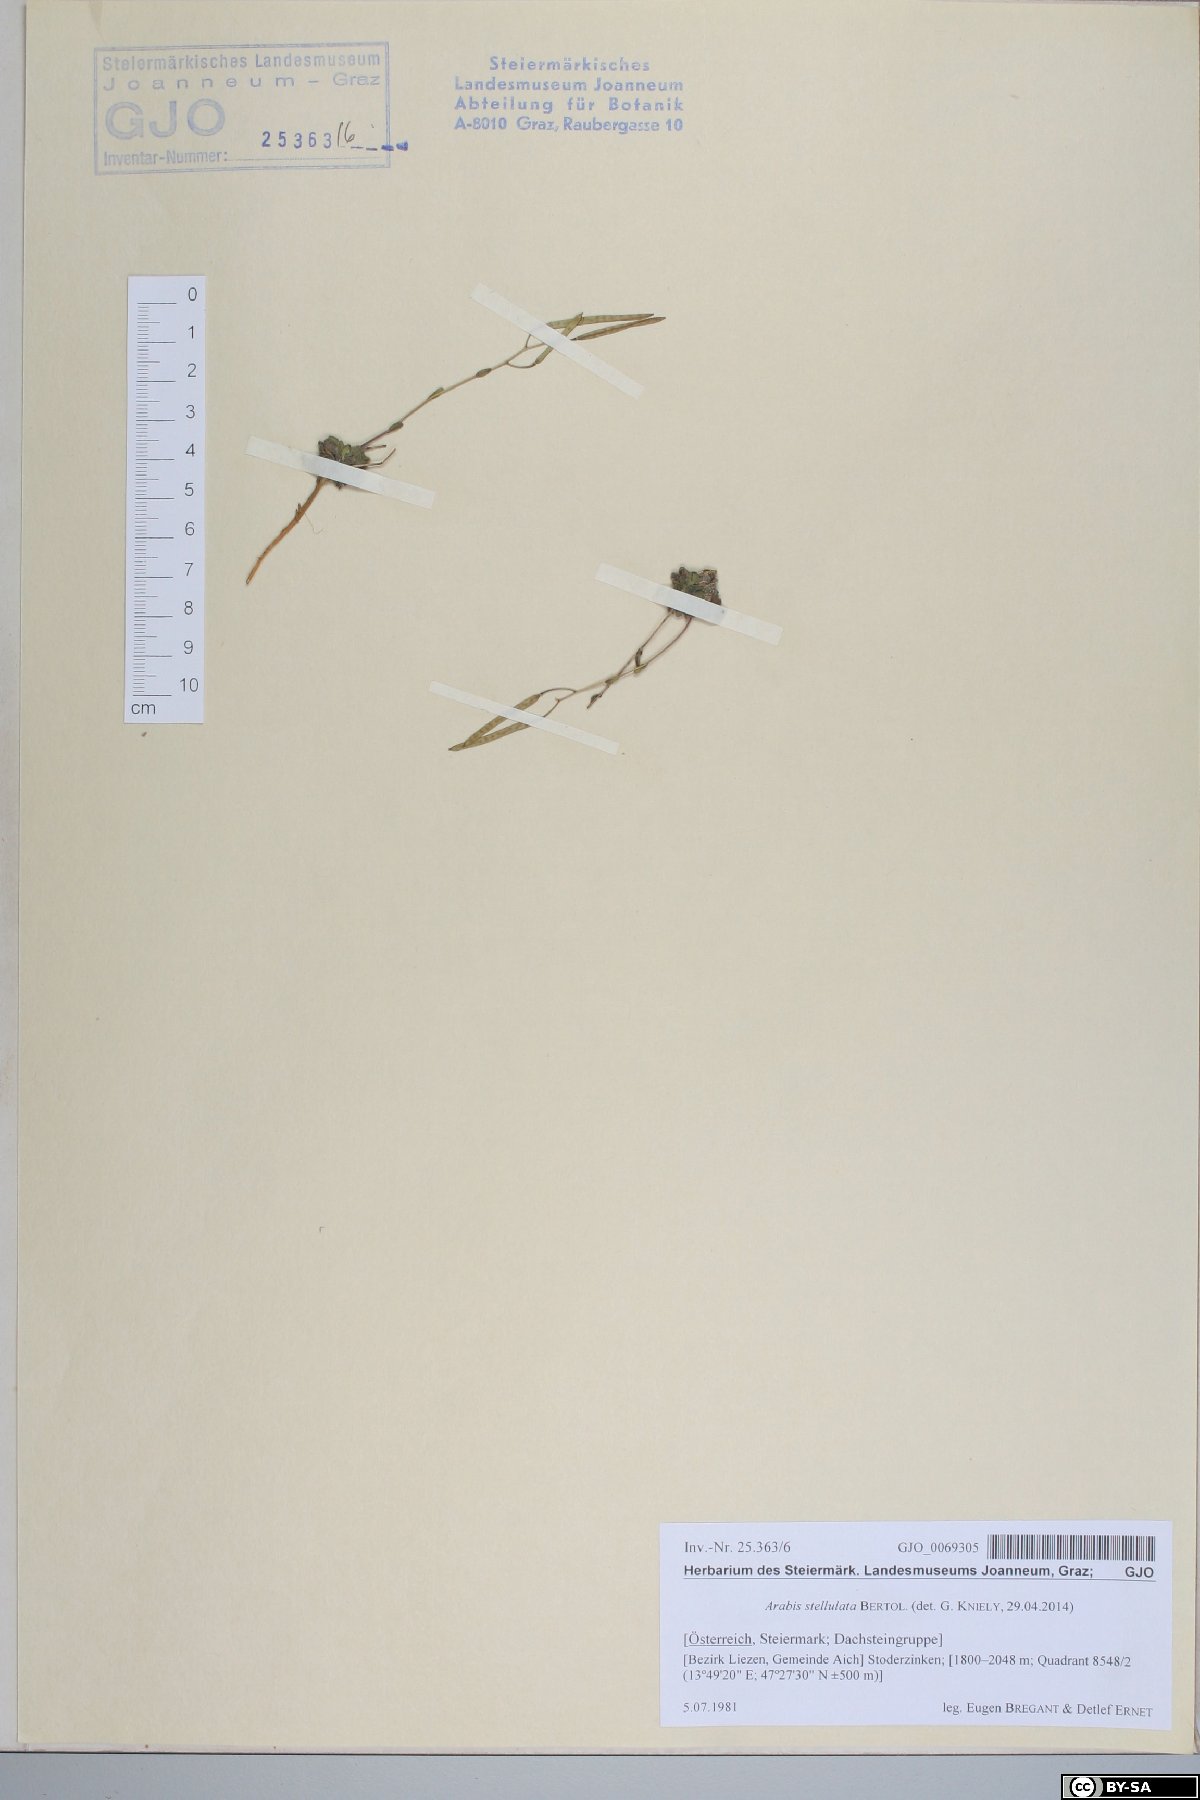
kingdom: Plantae
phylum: Tracheophyta
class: Magnoliopsida
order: Brassicales
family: Brassicaceae
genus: Arabis
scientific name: Arabis stellulata
